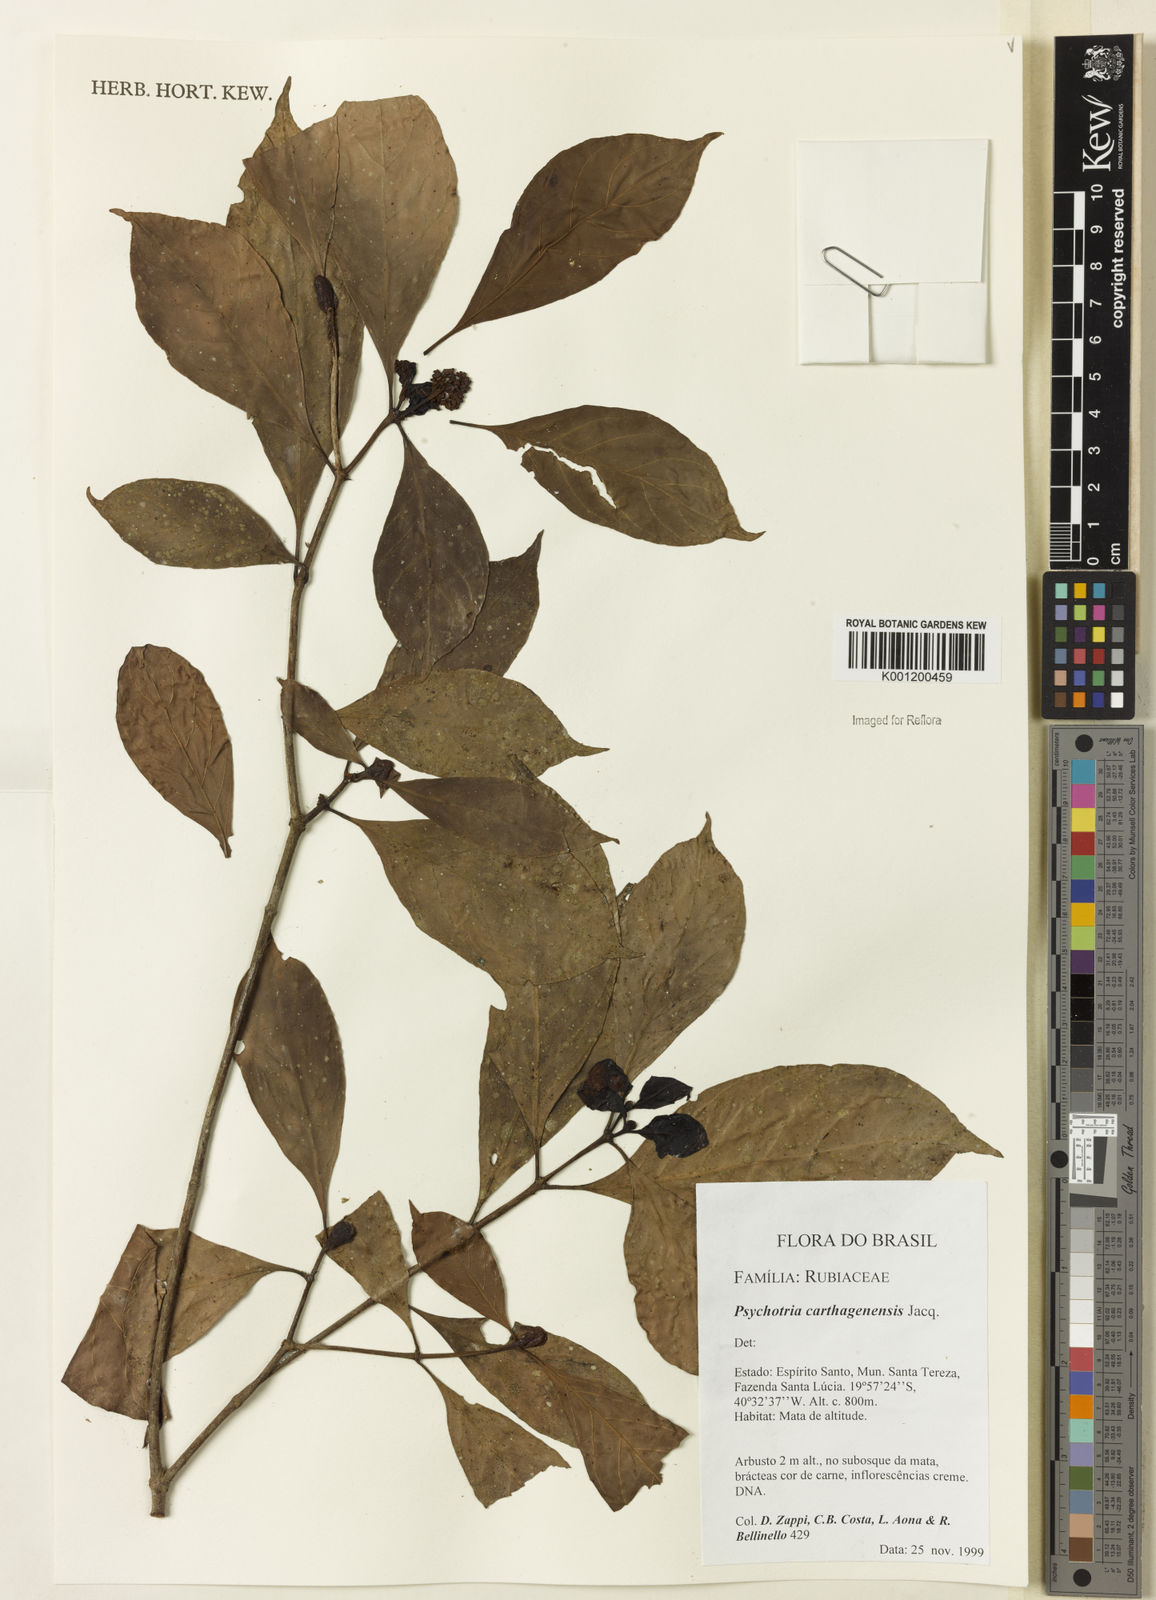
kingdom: Plantae
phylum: Tracheophyta
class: Magnoliopsida
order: Gentianales
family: Rubiaceae
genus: Psychotria
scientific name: Psychotria carthagenensis
